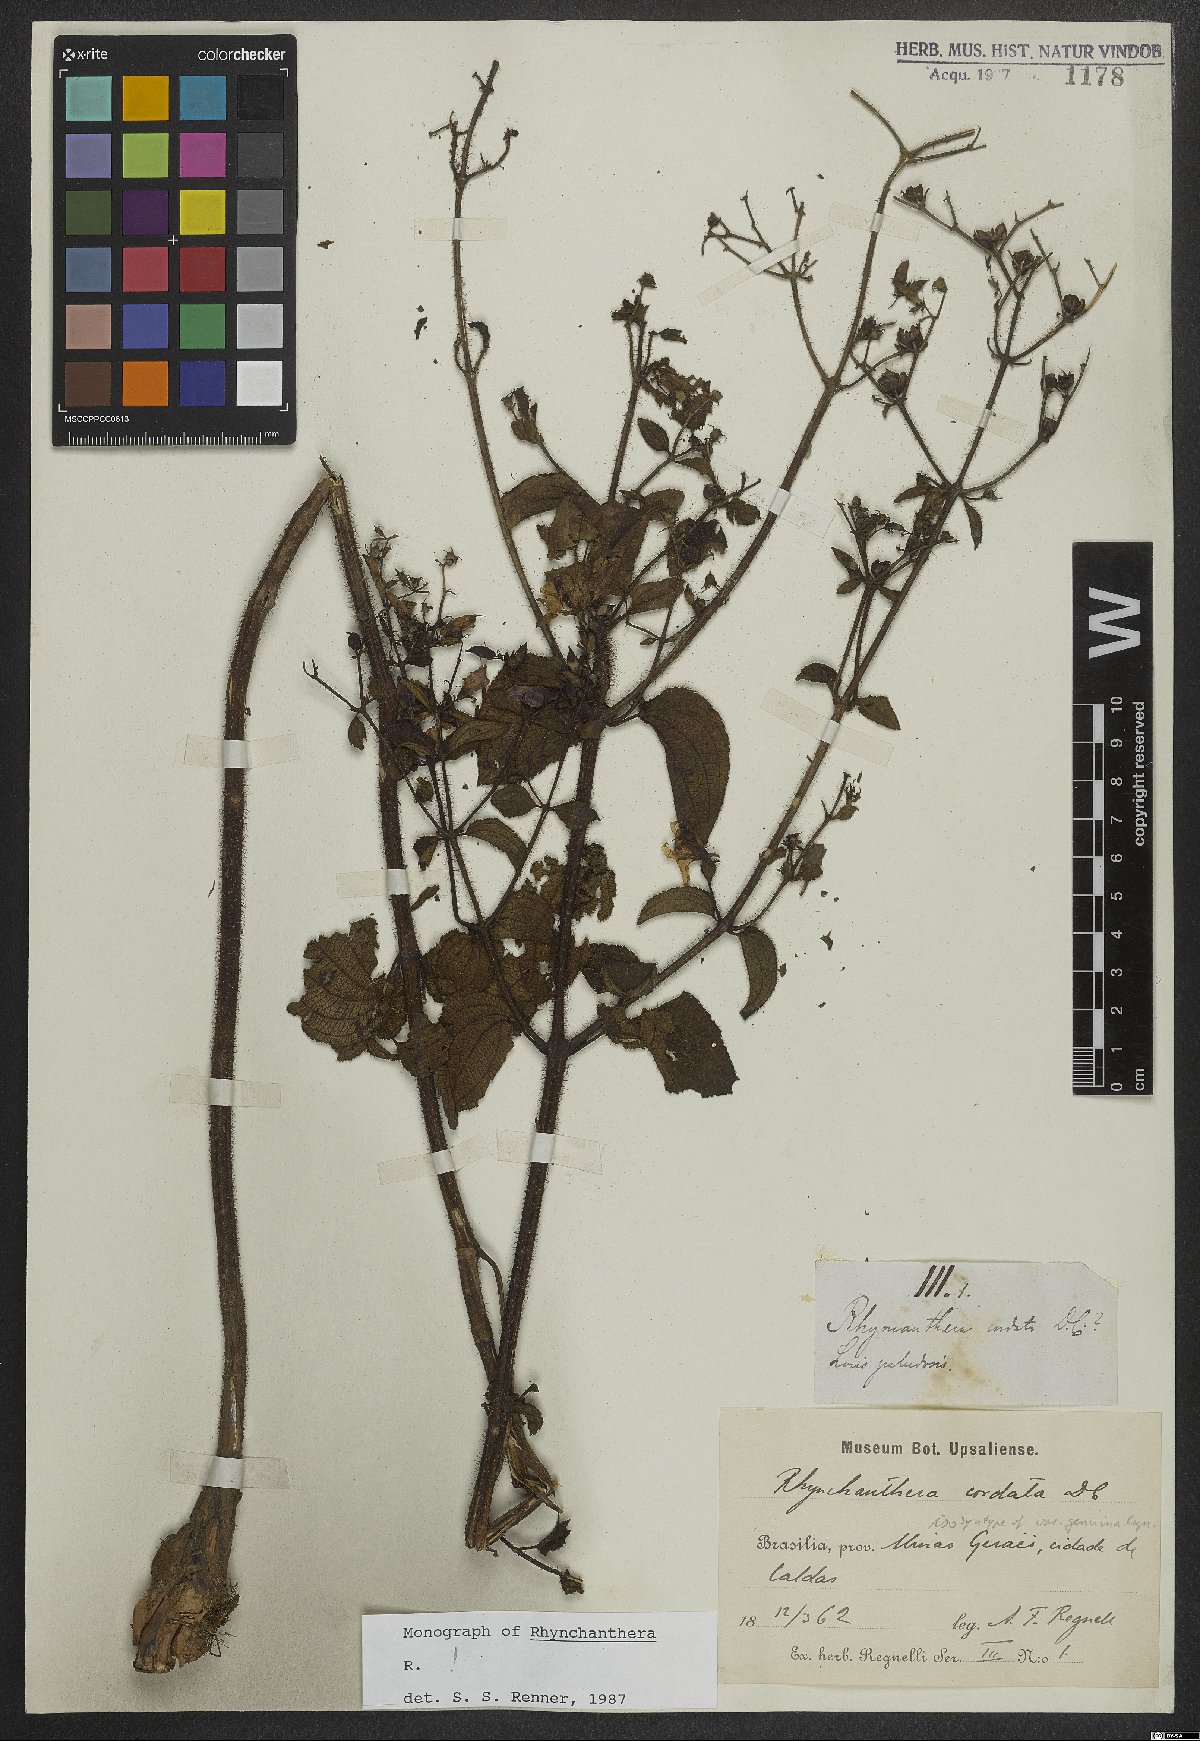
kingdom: Plantae
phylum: Tracheophyta
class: Magnoliopsida
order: Myrtales
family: Melastomataceae
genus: Rhynchanthera
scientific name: Rhynchanthera cordata
